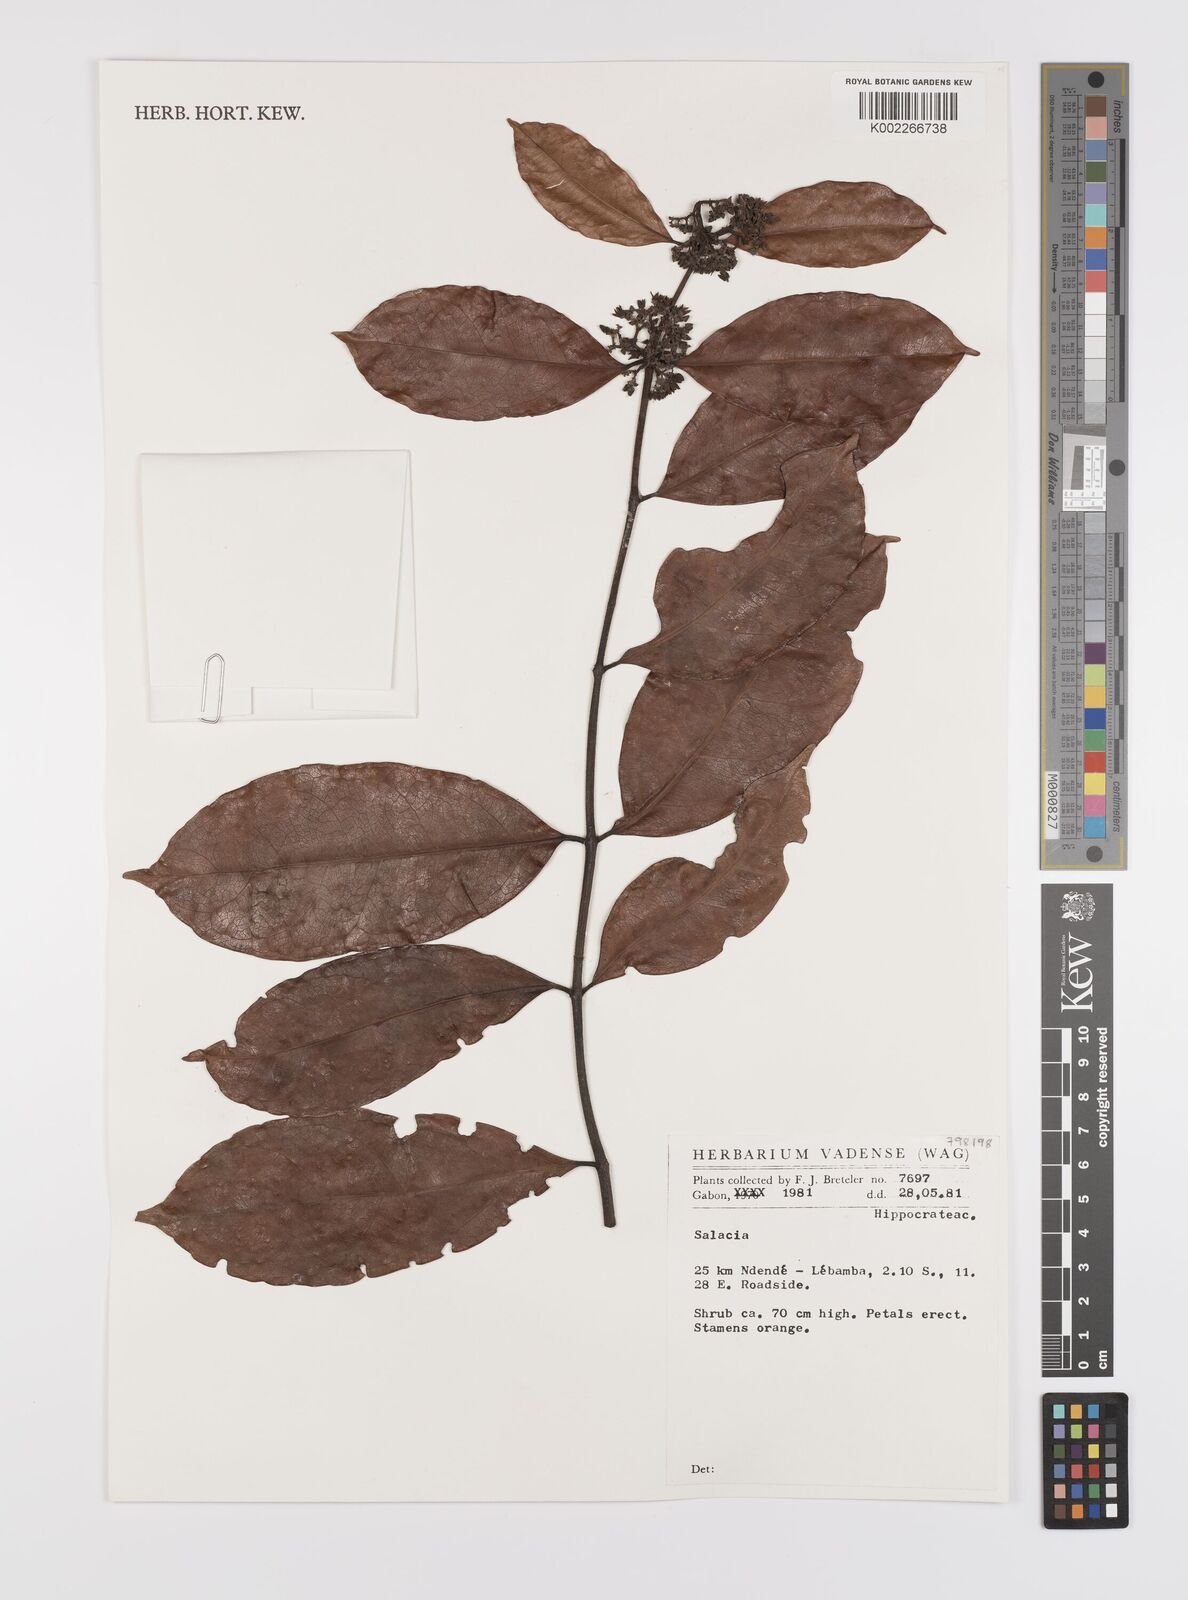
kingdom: Plantae
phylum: Tracheophyta
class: Magnoliopsida
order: Celastrales
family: Celastraceae
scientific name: Celastraceae
